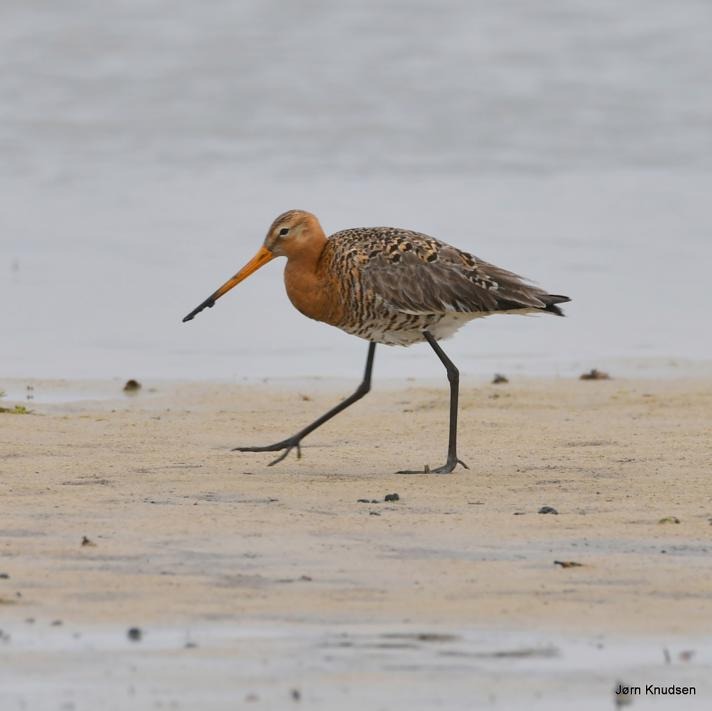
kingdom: Animalia
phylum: Chordata
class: Aves
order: Charadriiformes
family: Scolopacidae
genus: Limosa
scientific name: Limosa limosa
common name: Stor kobbersneppe
